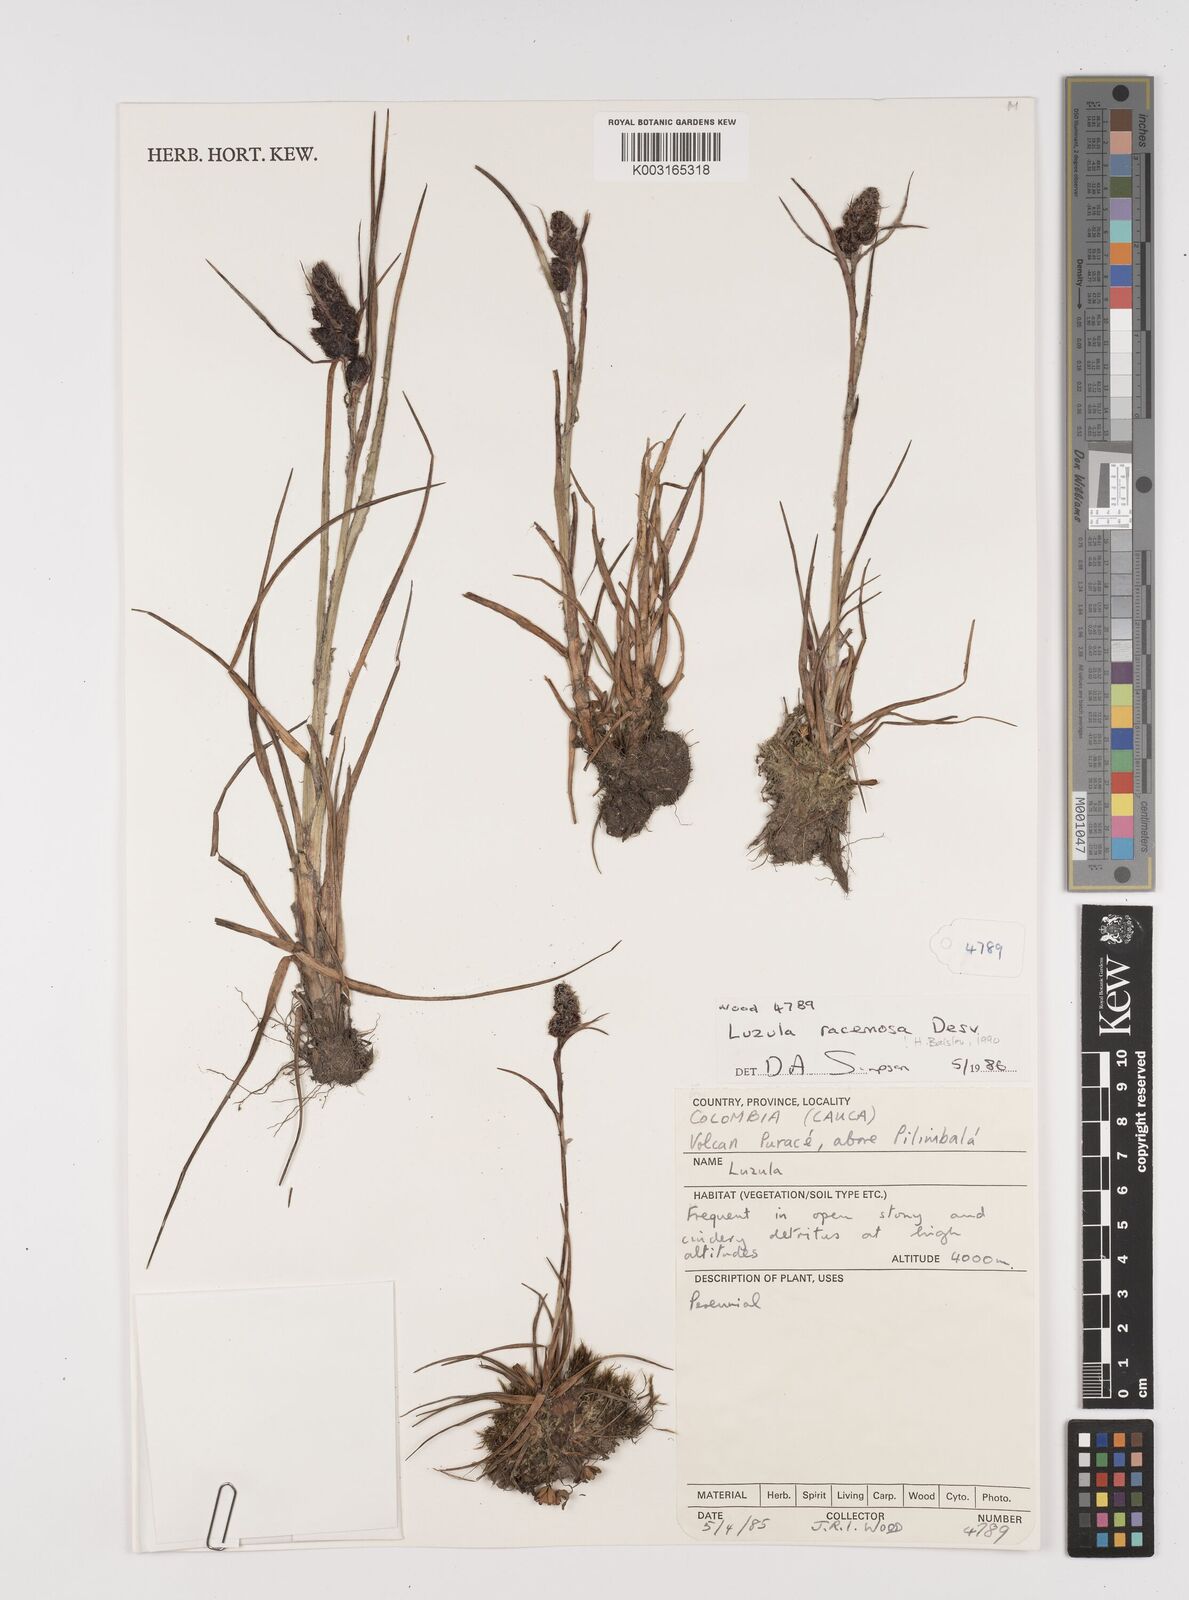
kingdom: Plantae
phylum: Tracheophyta
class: Liliopsida
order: Poales
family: Juncaceae
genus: Luzula
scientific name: Luzula racemosa
